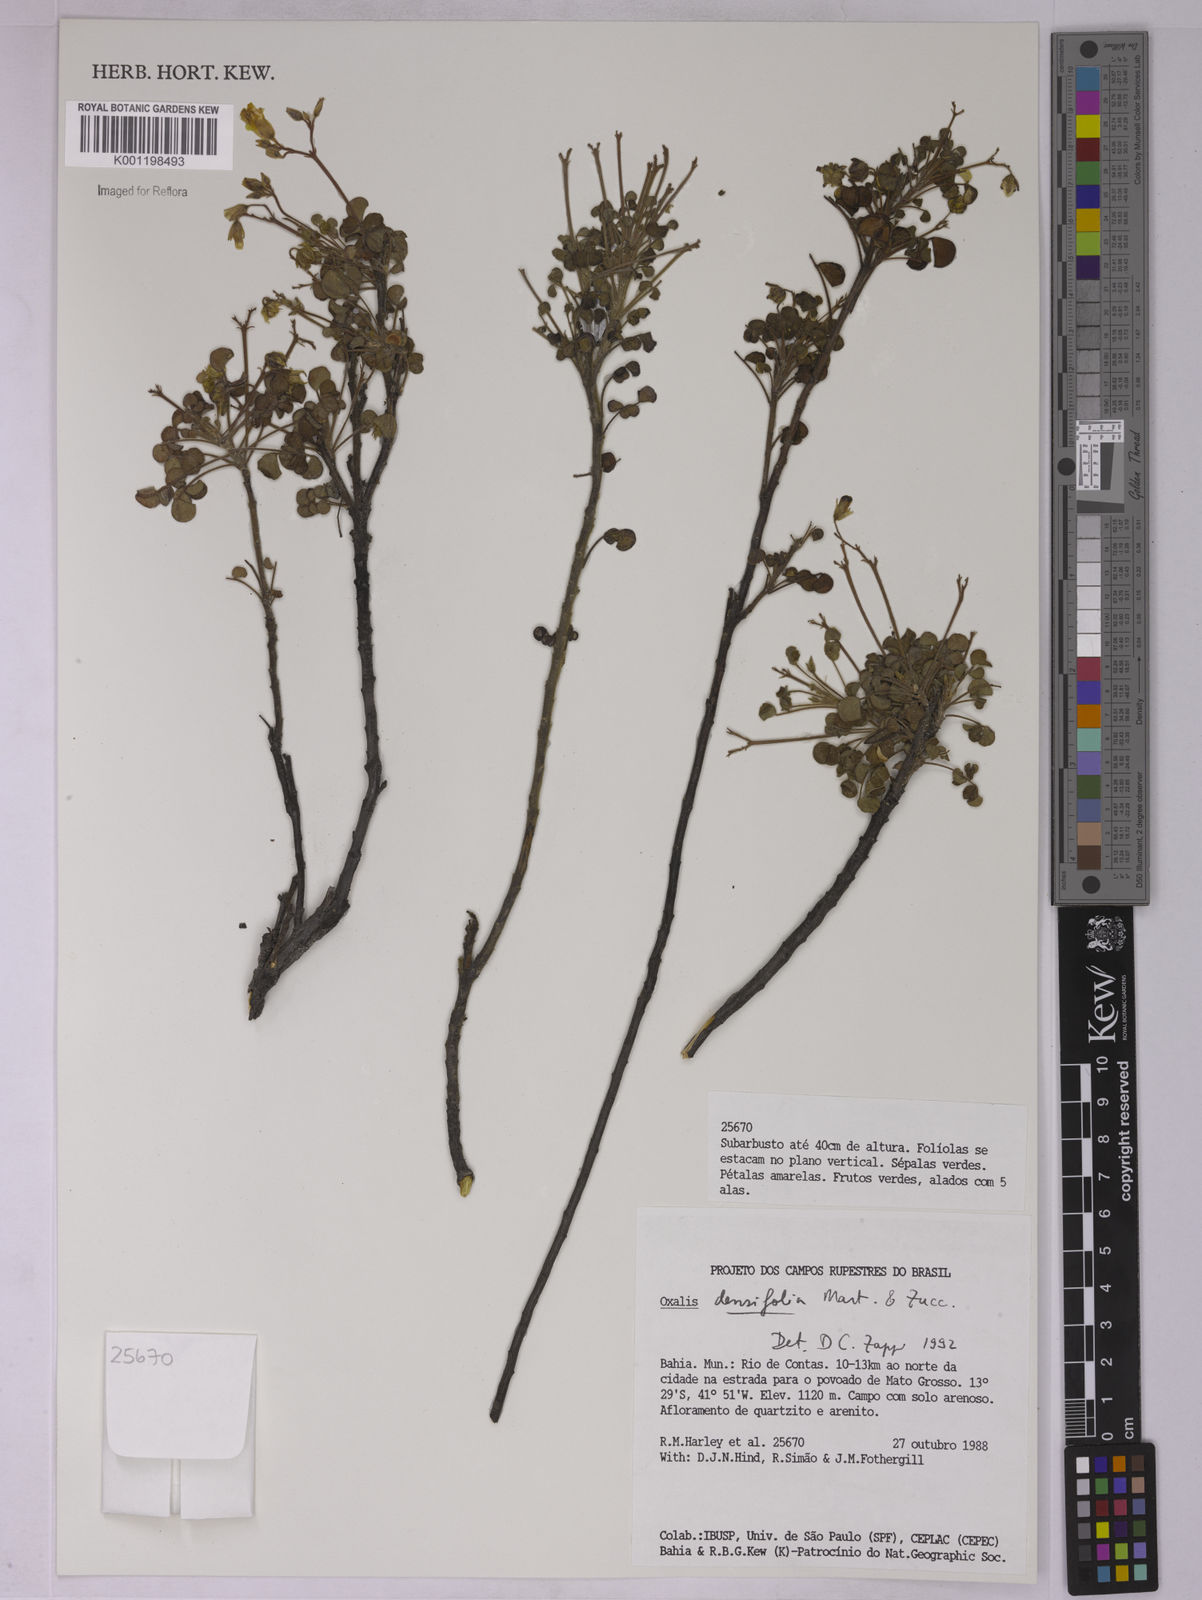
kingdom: Plantae
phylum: Tracheophyta
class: Magnoliopsida
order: Oxalidales
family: Oxalidaceae
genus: Oxalis
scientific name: Oxalis cerradoana
